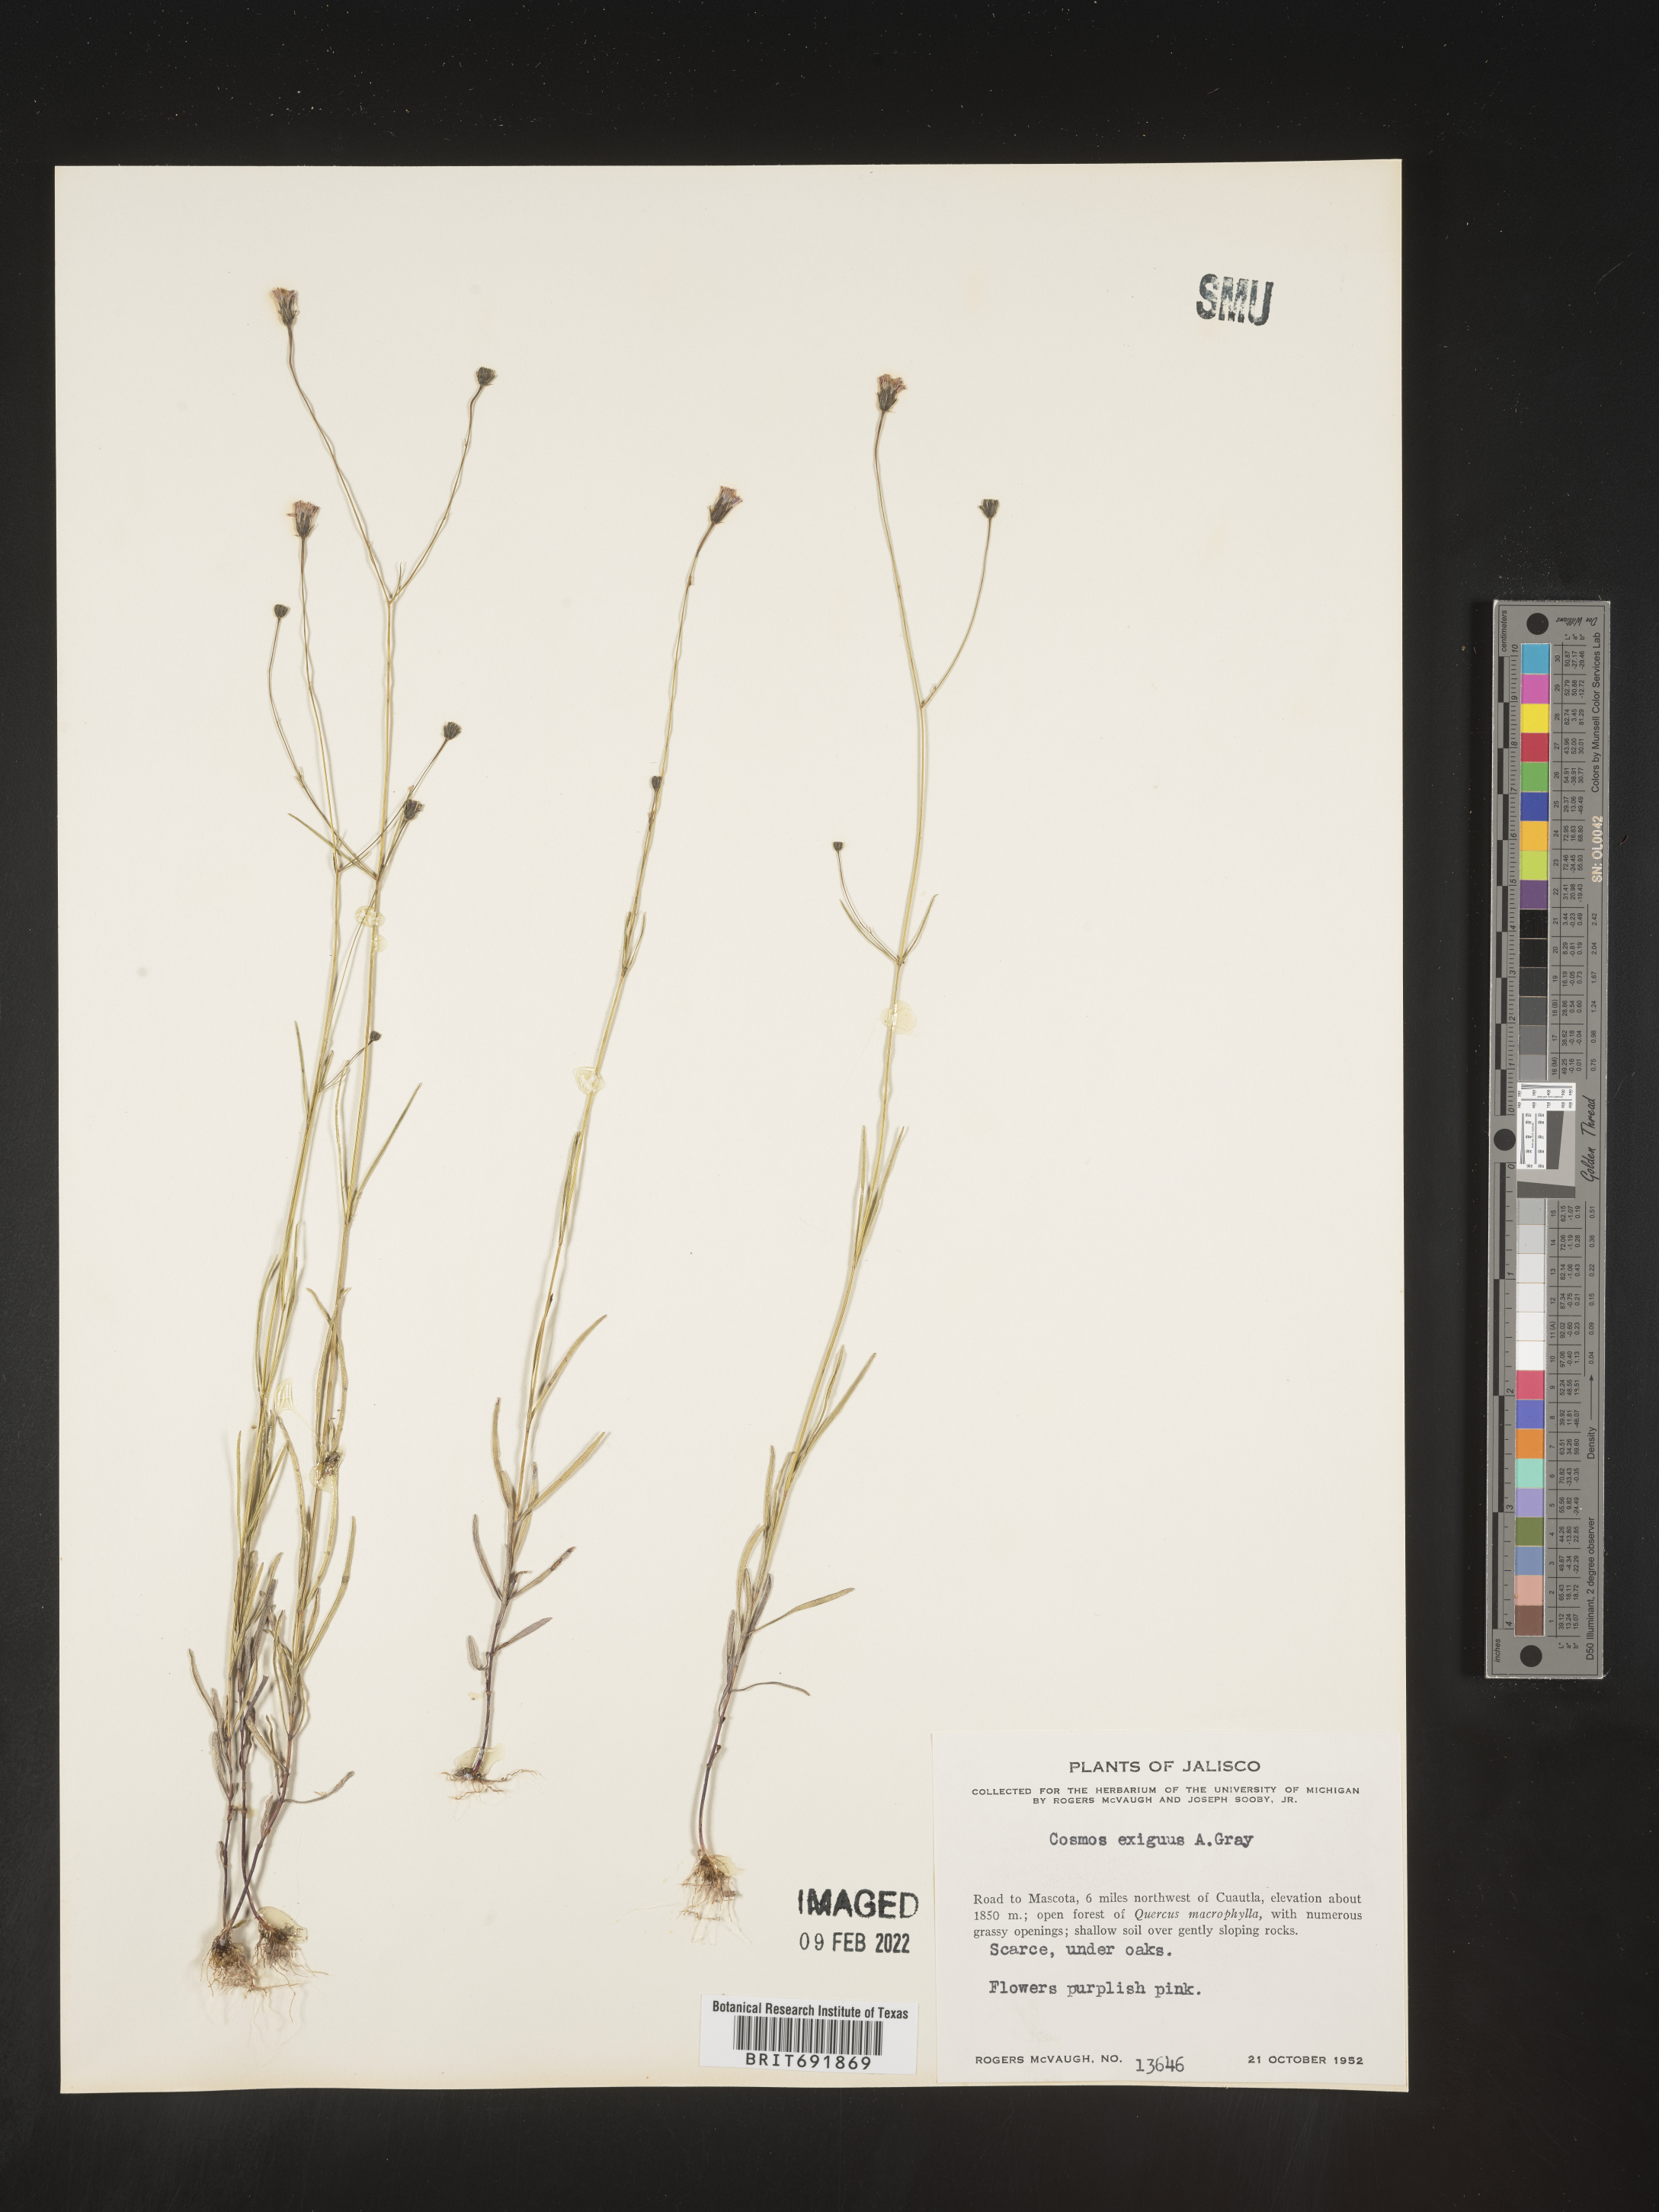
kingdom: Plantae
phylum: Tracheophyta
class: Magnoliopsida
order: Asterales
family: Asteraceae
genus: Cosmos
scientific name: Cosmos
